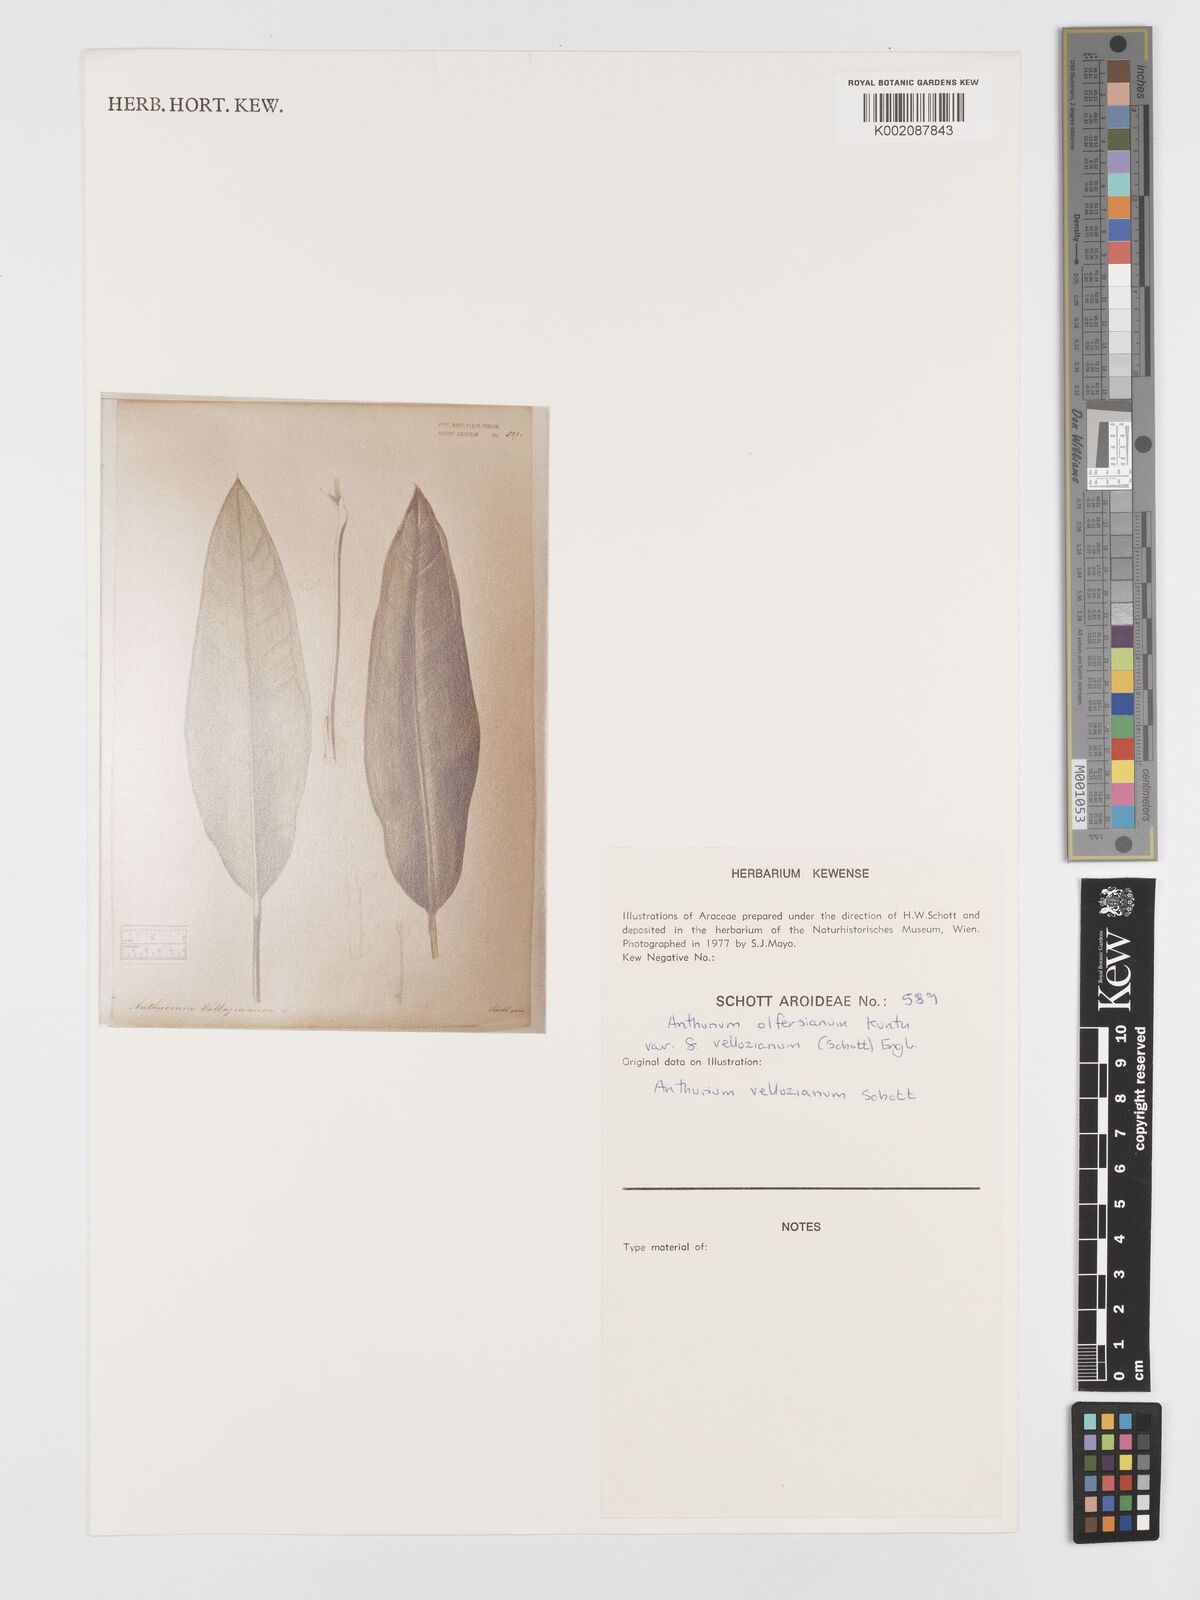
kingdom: Plantae
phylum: Tracheophyta
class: Liliopsida
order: Alismatales
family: Araceae
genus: Anthurium
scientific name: Anthurium parasiticum
